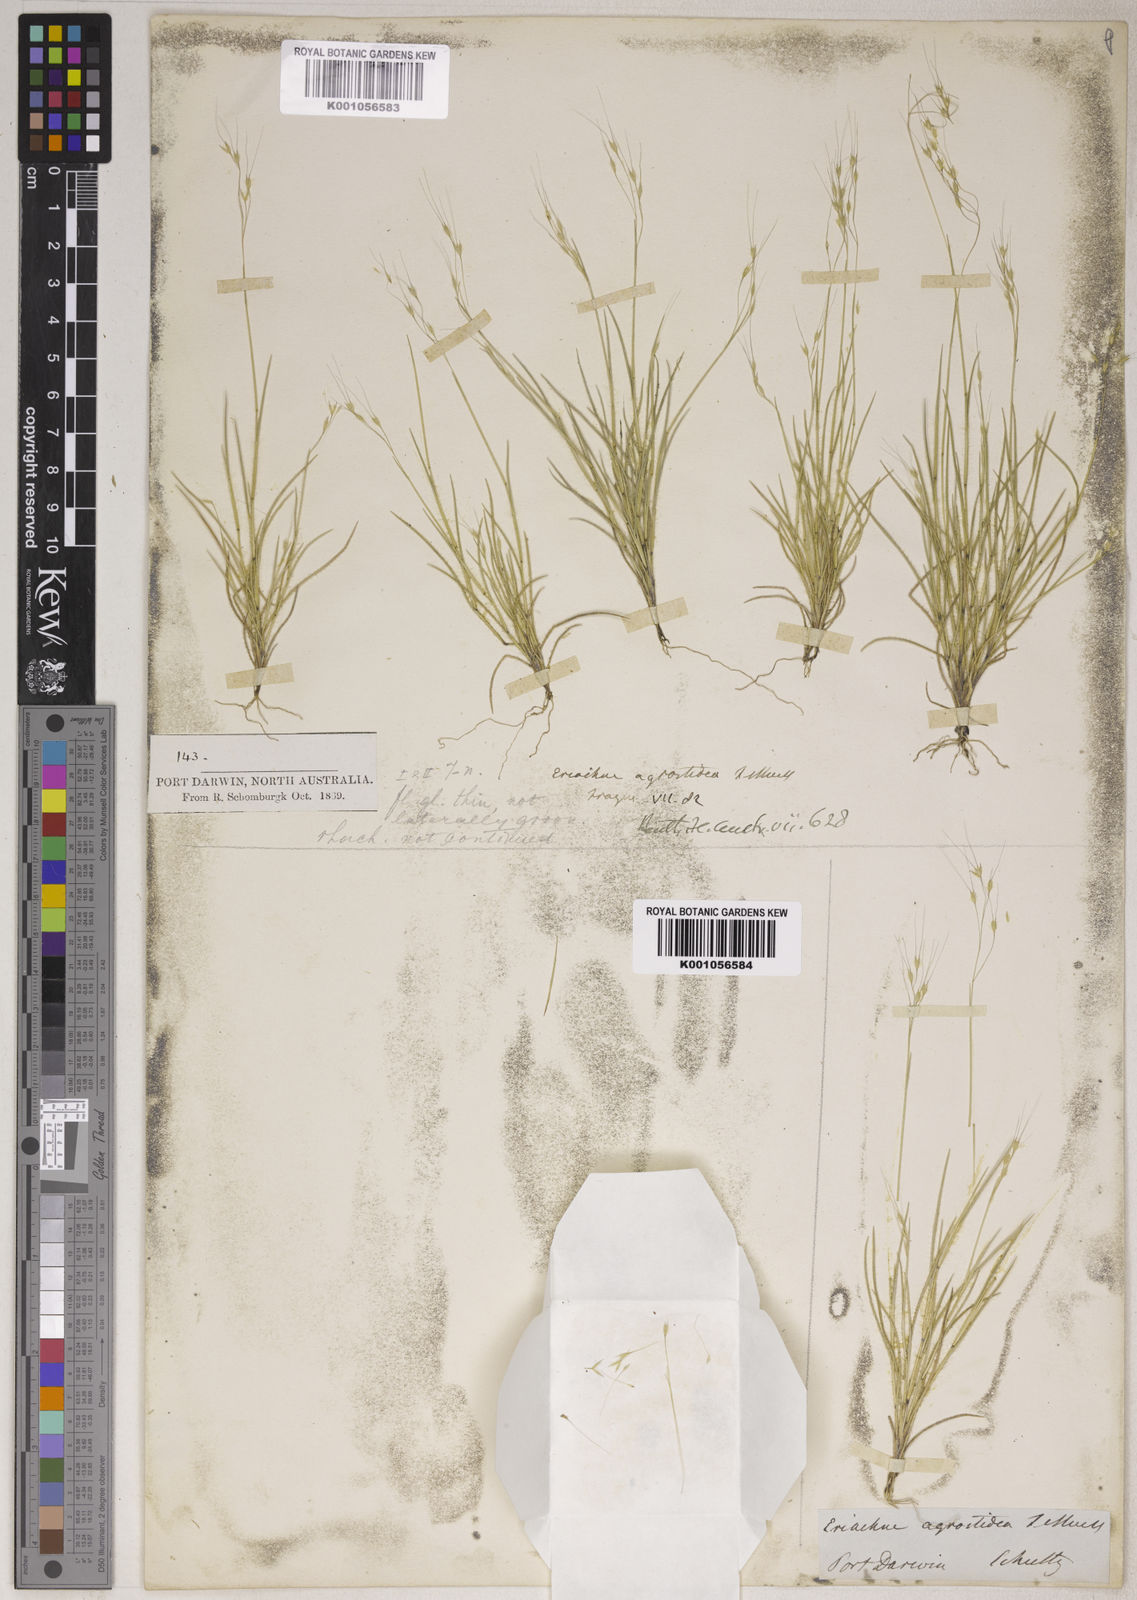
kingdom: Plantae
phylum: Tracheophyta
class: Liliopsida
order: Poales
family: Poaceae
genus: Eriachne
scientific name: Eriachne agrostidea
